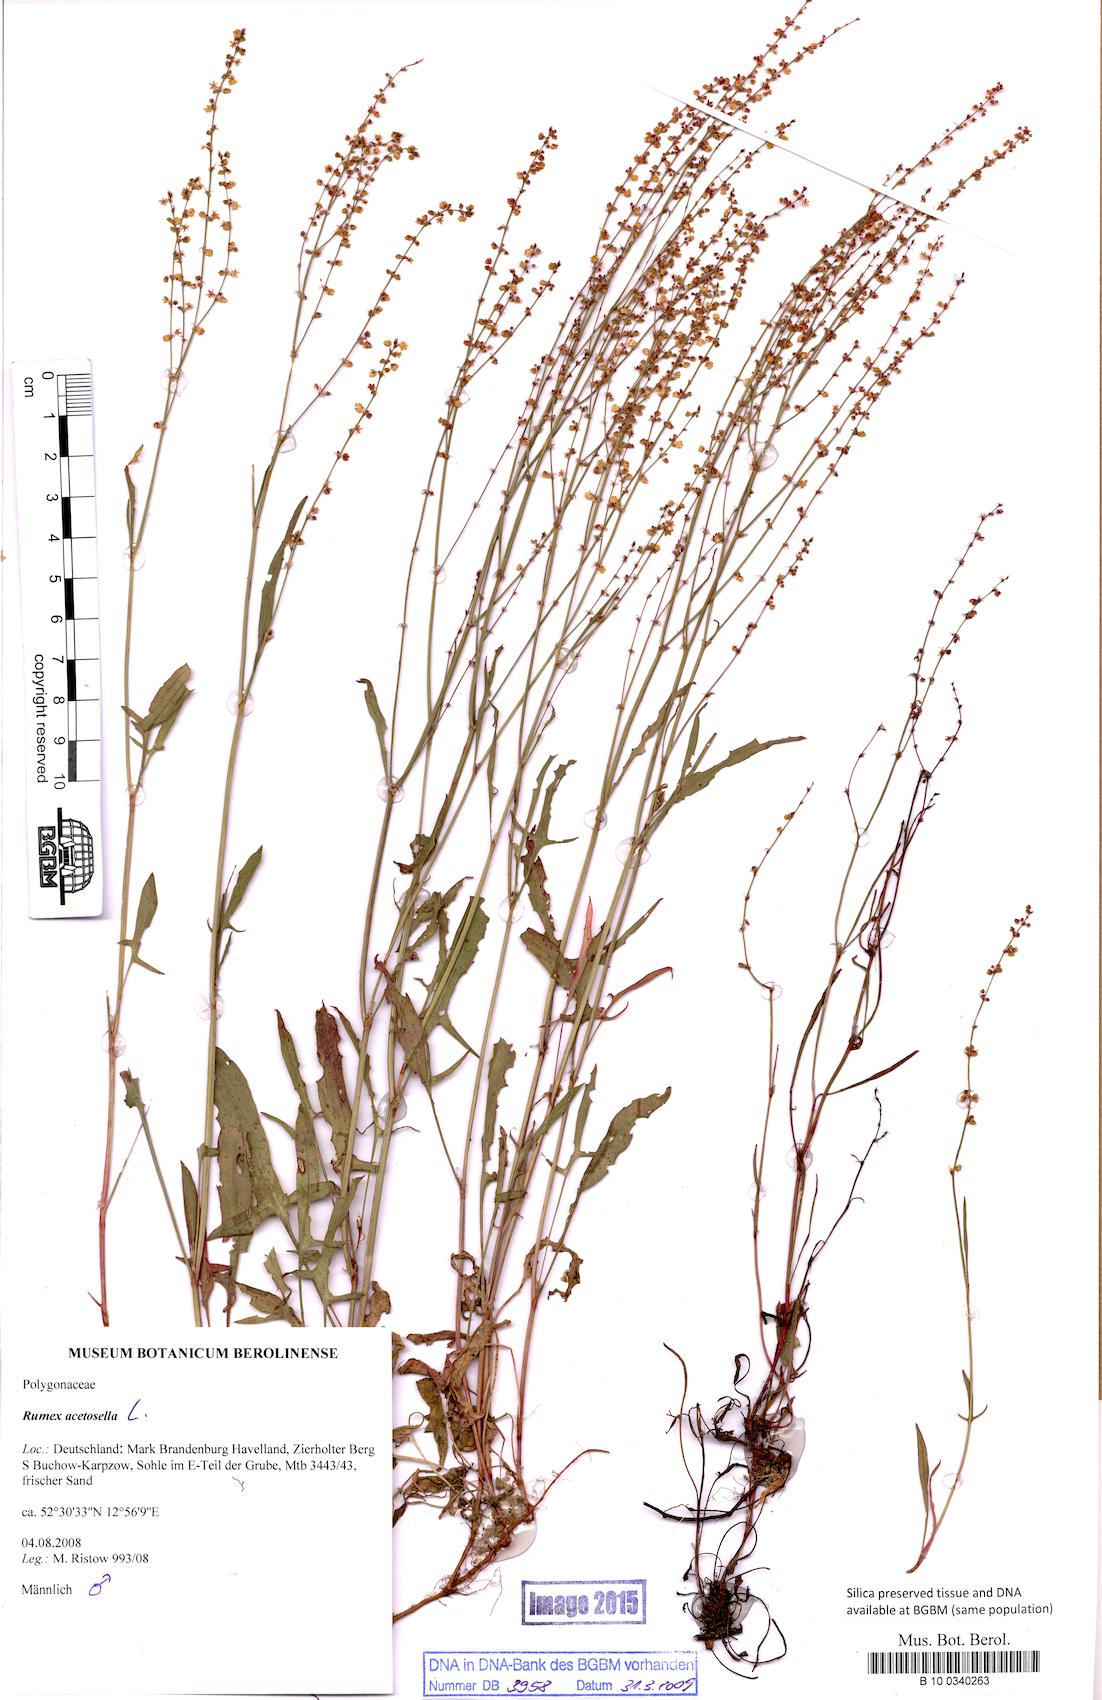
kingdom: Plantae
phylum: Tracheophyta
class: Magnoliopsida
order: Caryophyllales
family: Polygonaceae
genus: Rumex
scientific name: Rumex acetosella
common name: Common sheep sorrel
